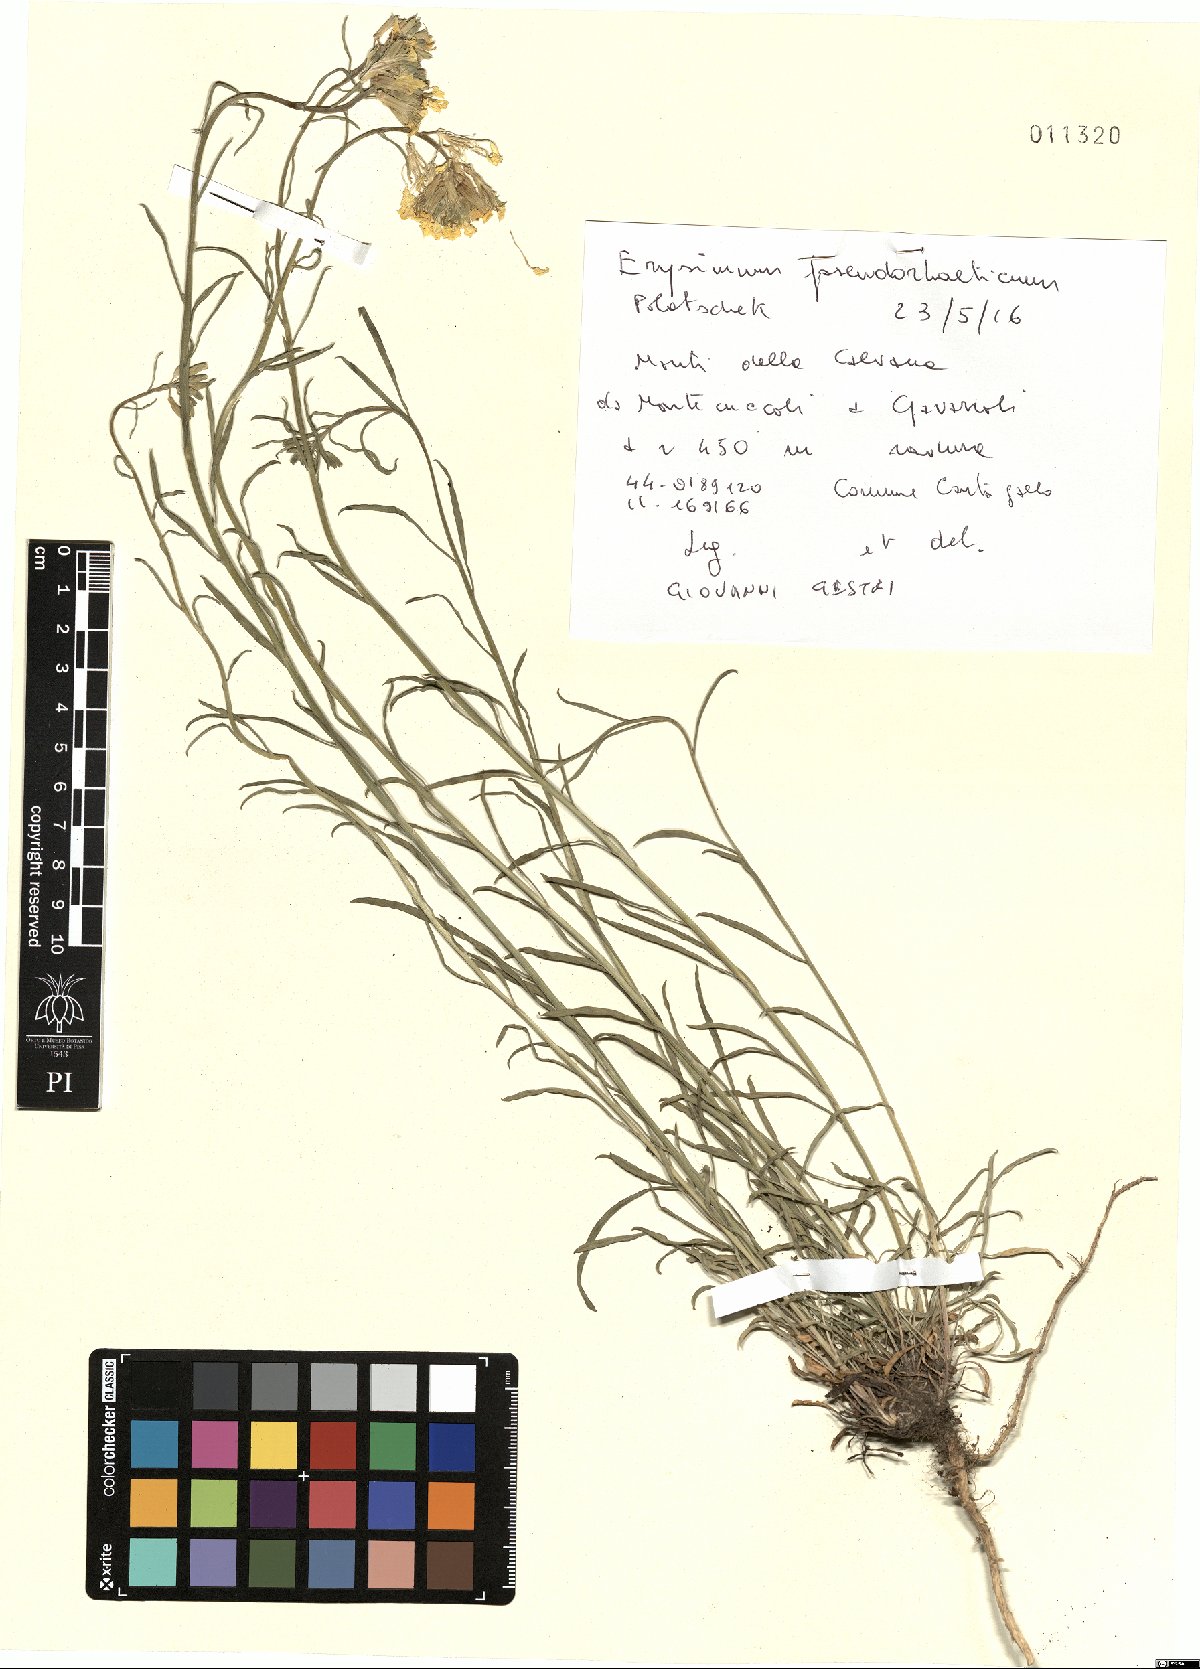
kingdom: Plantae
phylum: Tracheophyta
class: Magnoliopsida
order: Brassicales
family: Brassicaceae
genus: Erysimum
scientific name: Erysimum pseudorhaeticum
